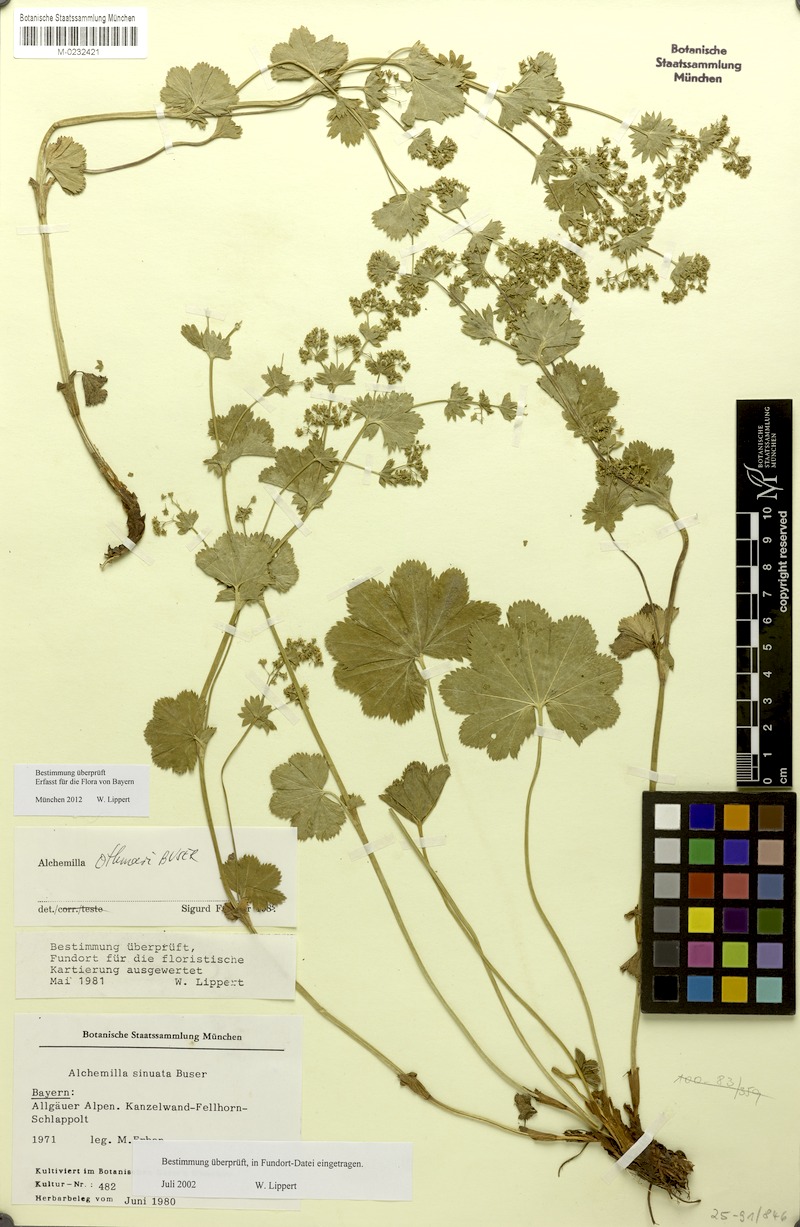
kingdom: Plantae
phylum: Tracheophyta
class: Magnoliopsida
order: Rosales
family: Rosaceae
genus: Alchemilla
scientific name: Alchemilla othmarii
